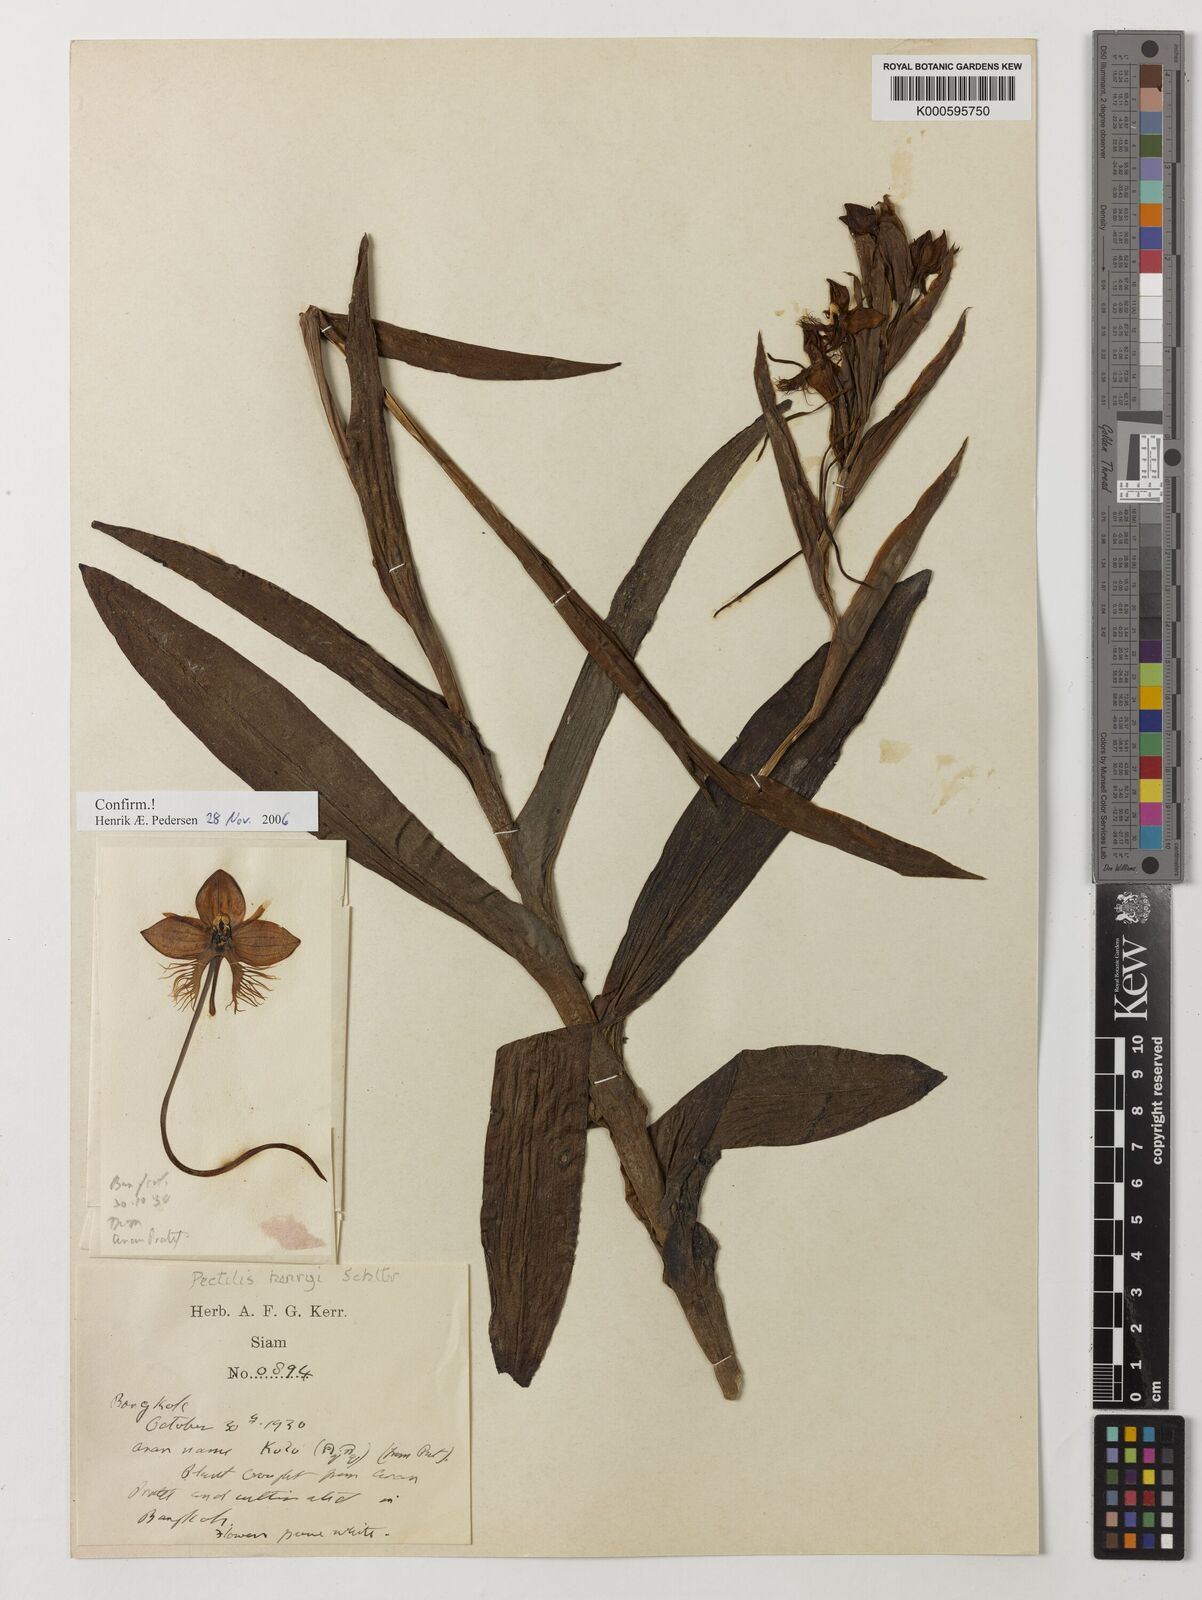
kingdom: Plantae
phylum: Tracheophyta
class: Liliopsida
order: Asparagales
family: Orchidaceae
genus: Pecteilis
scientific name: Pecteilis henryi
